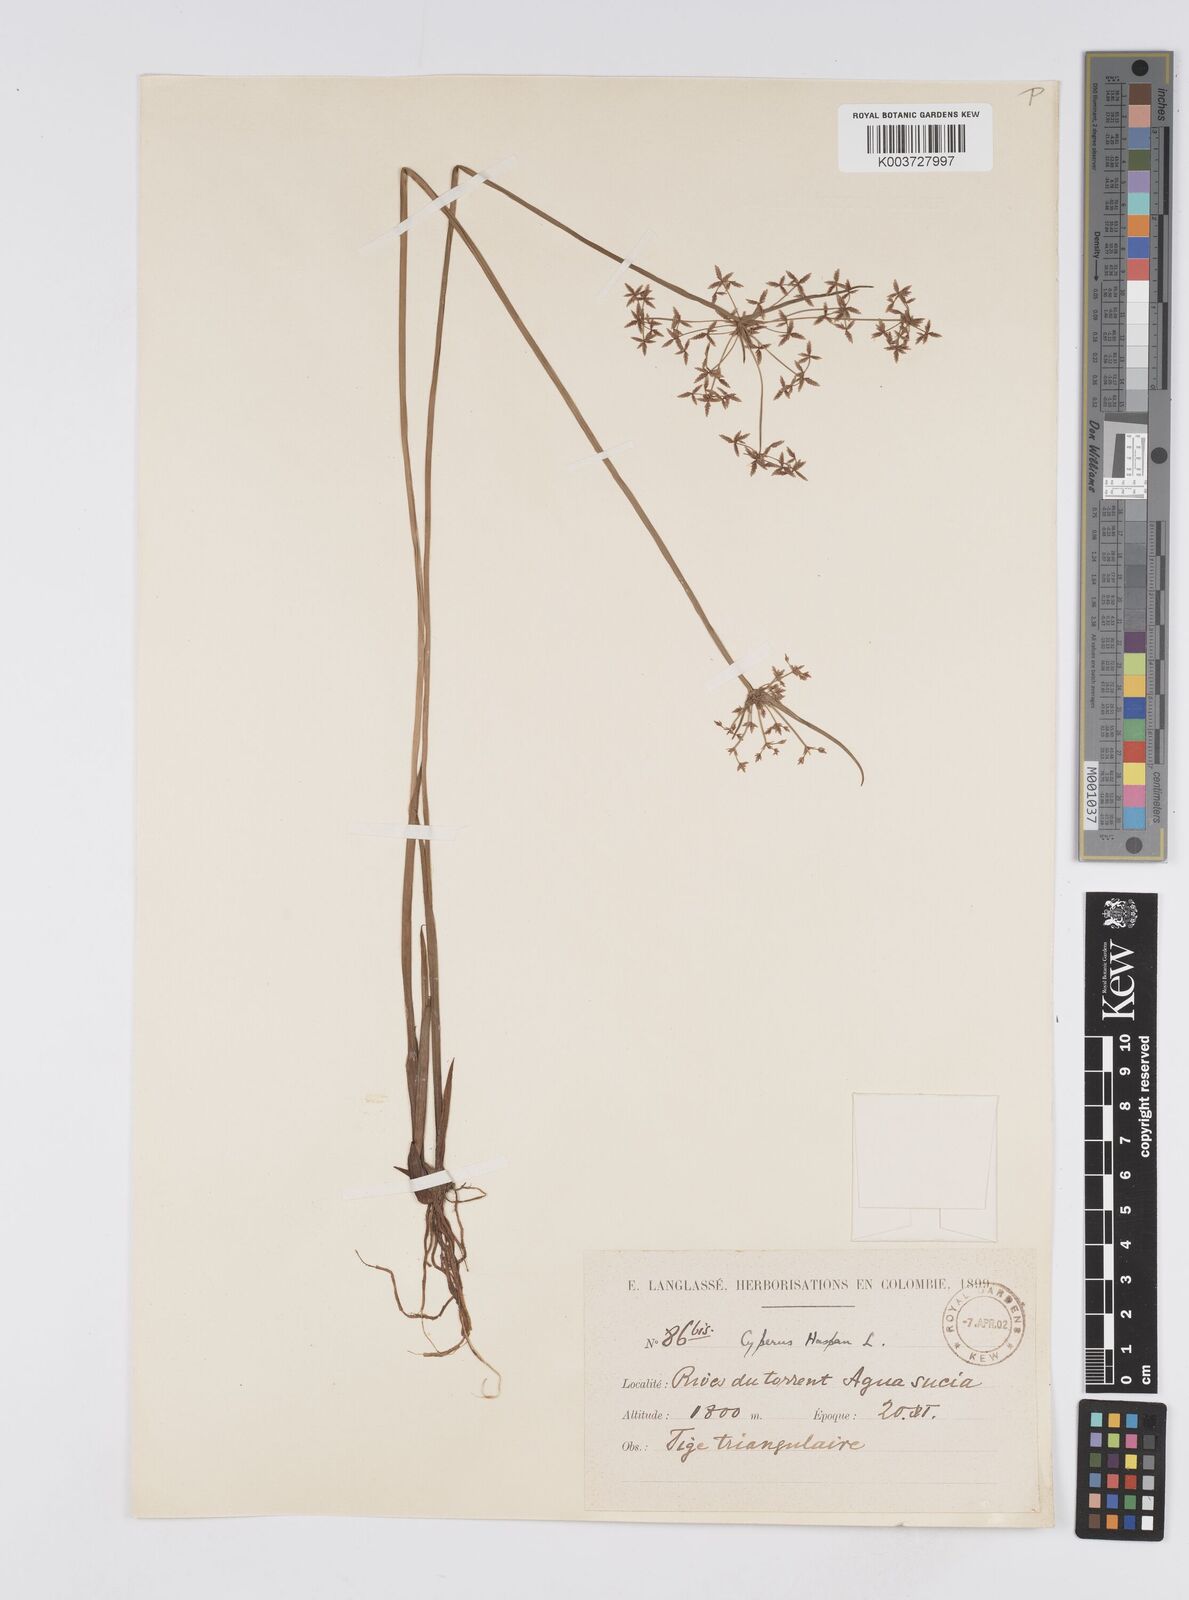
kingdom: Plantae
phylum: Tracheophyta
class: Liliopsida
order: Poales
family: Cyperaceae
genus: Cyperus
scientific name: Cyperus haspan
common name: Haspan flatsedge
